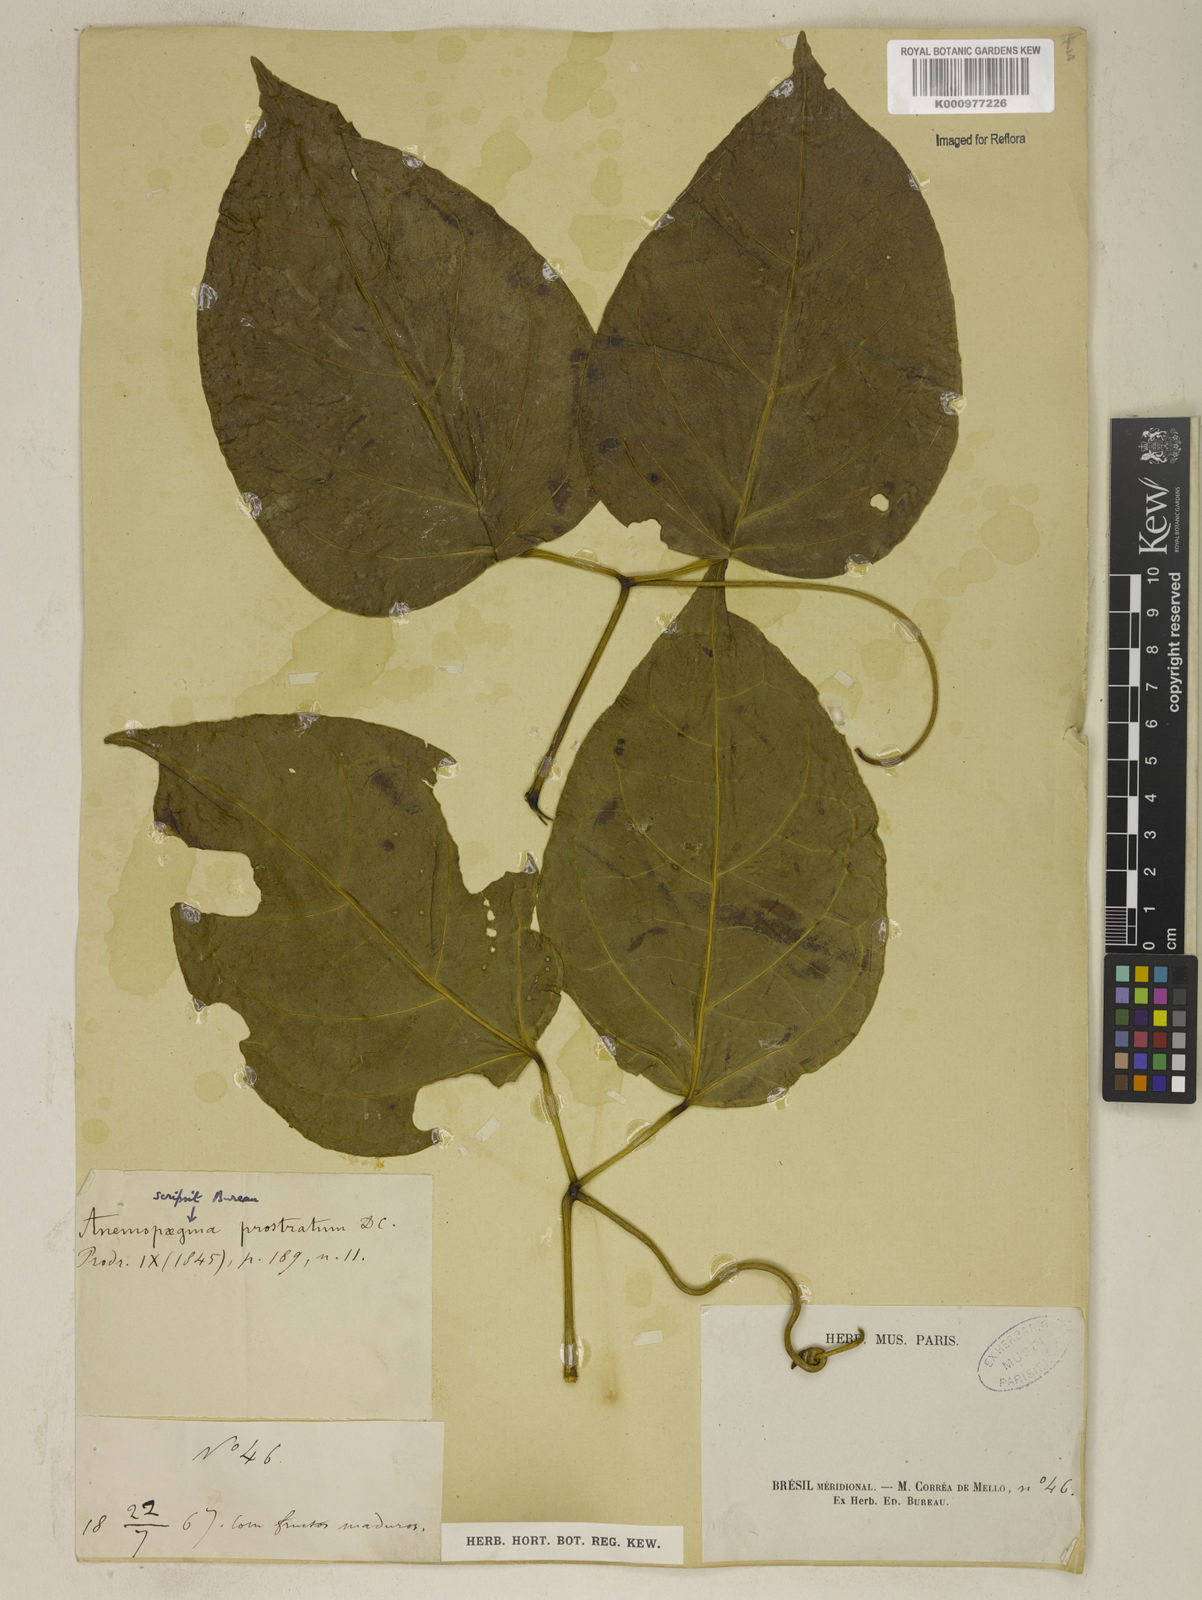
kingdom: Plantae
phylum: Tracheophyta
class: Magnoliopsida
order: Lamiales
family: Bignoniaceae
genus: Anemopaegma
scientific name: Anemopaegma prostratum
